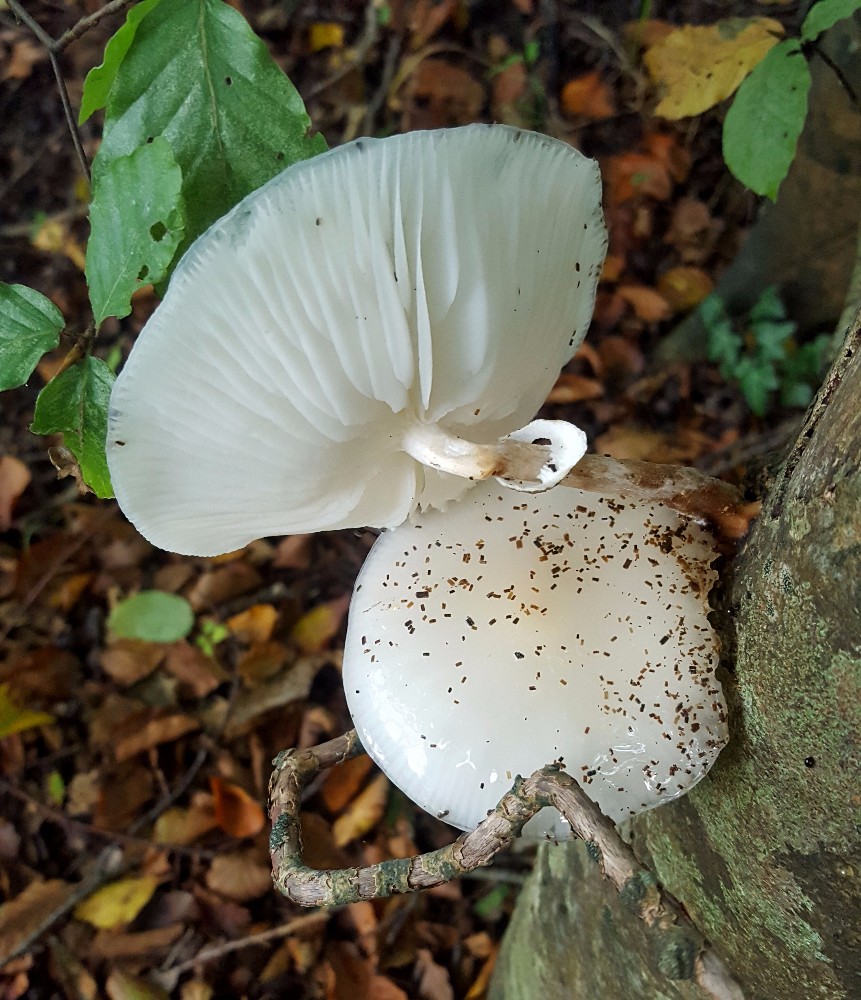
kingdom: Fungi
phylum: Basidiomycota
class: Agaricomycetes
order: Agaricales
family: Physalacriaceae
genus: Mucidula
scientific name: Mucidula mucida
